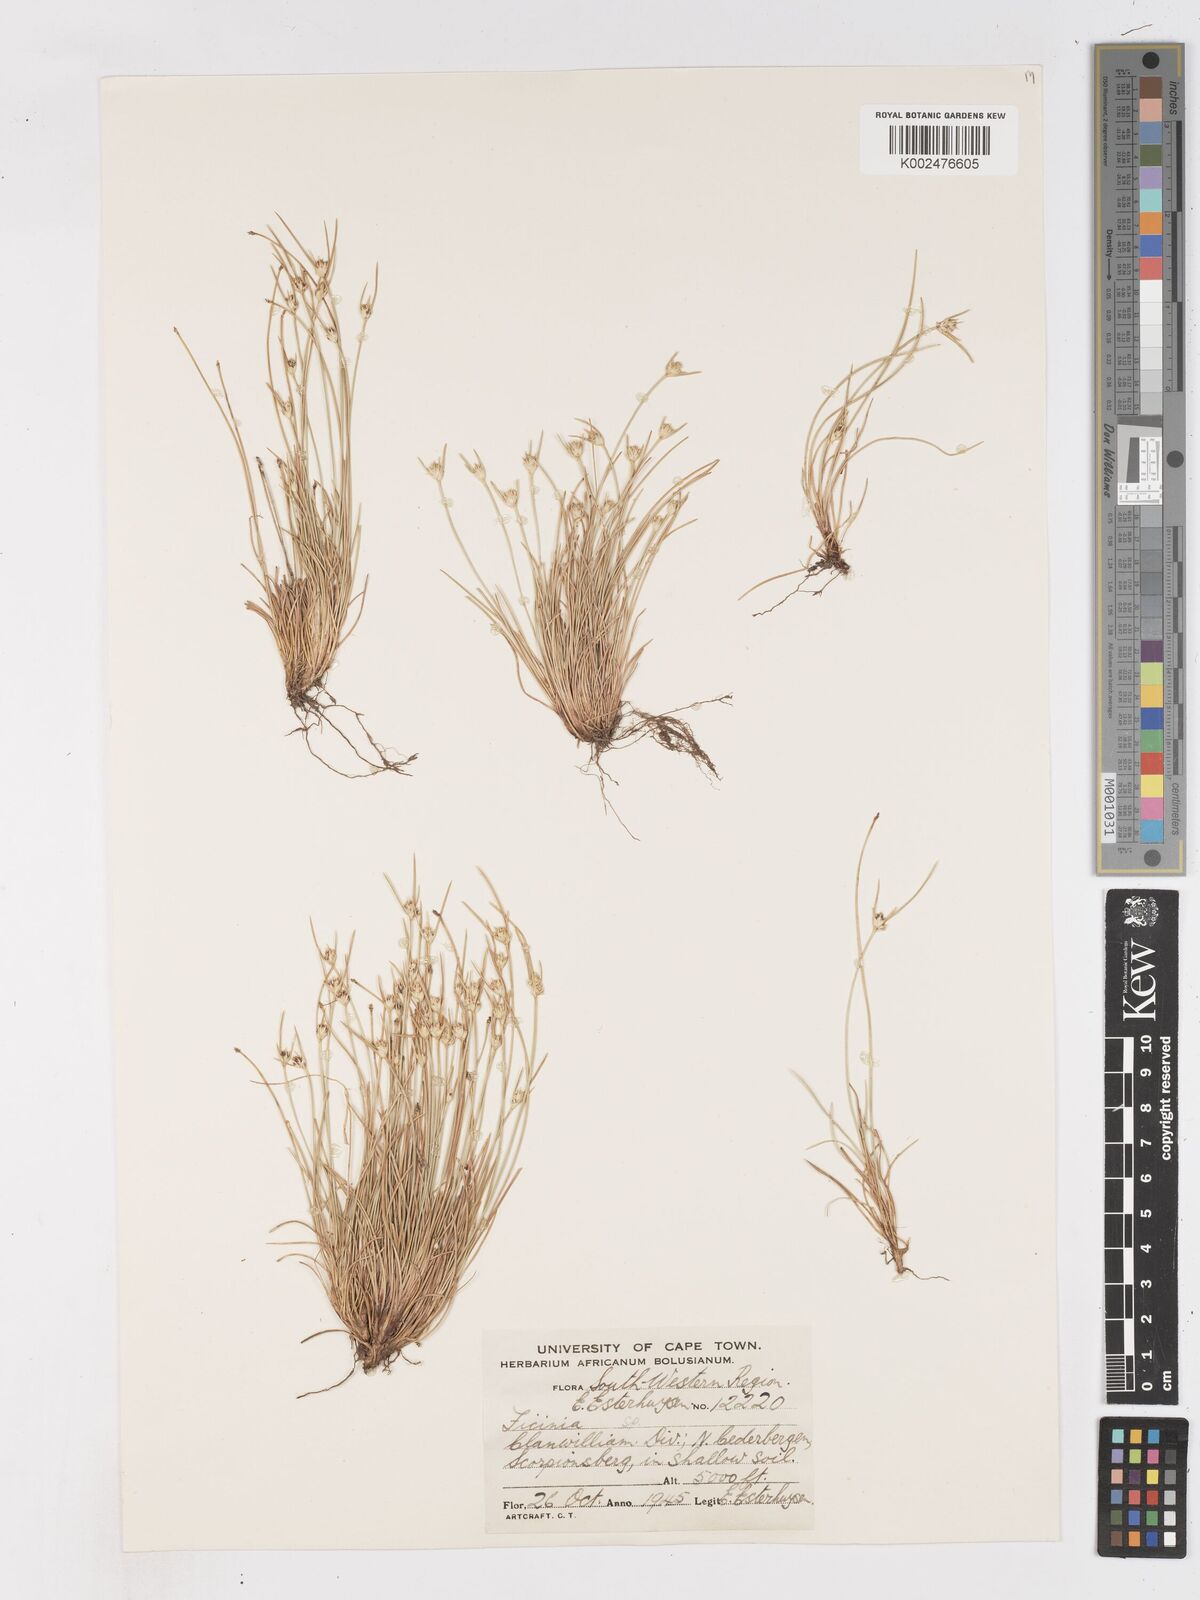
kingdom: Plantae
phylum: Tracheophyta
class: Liliopsida
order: Poales
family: Cyperaceae
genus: Ficinia
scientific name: Ficinia
